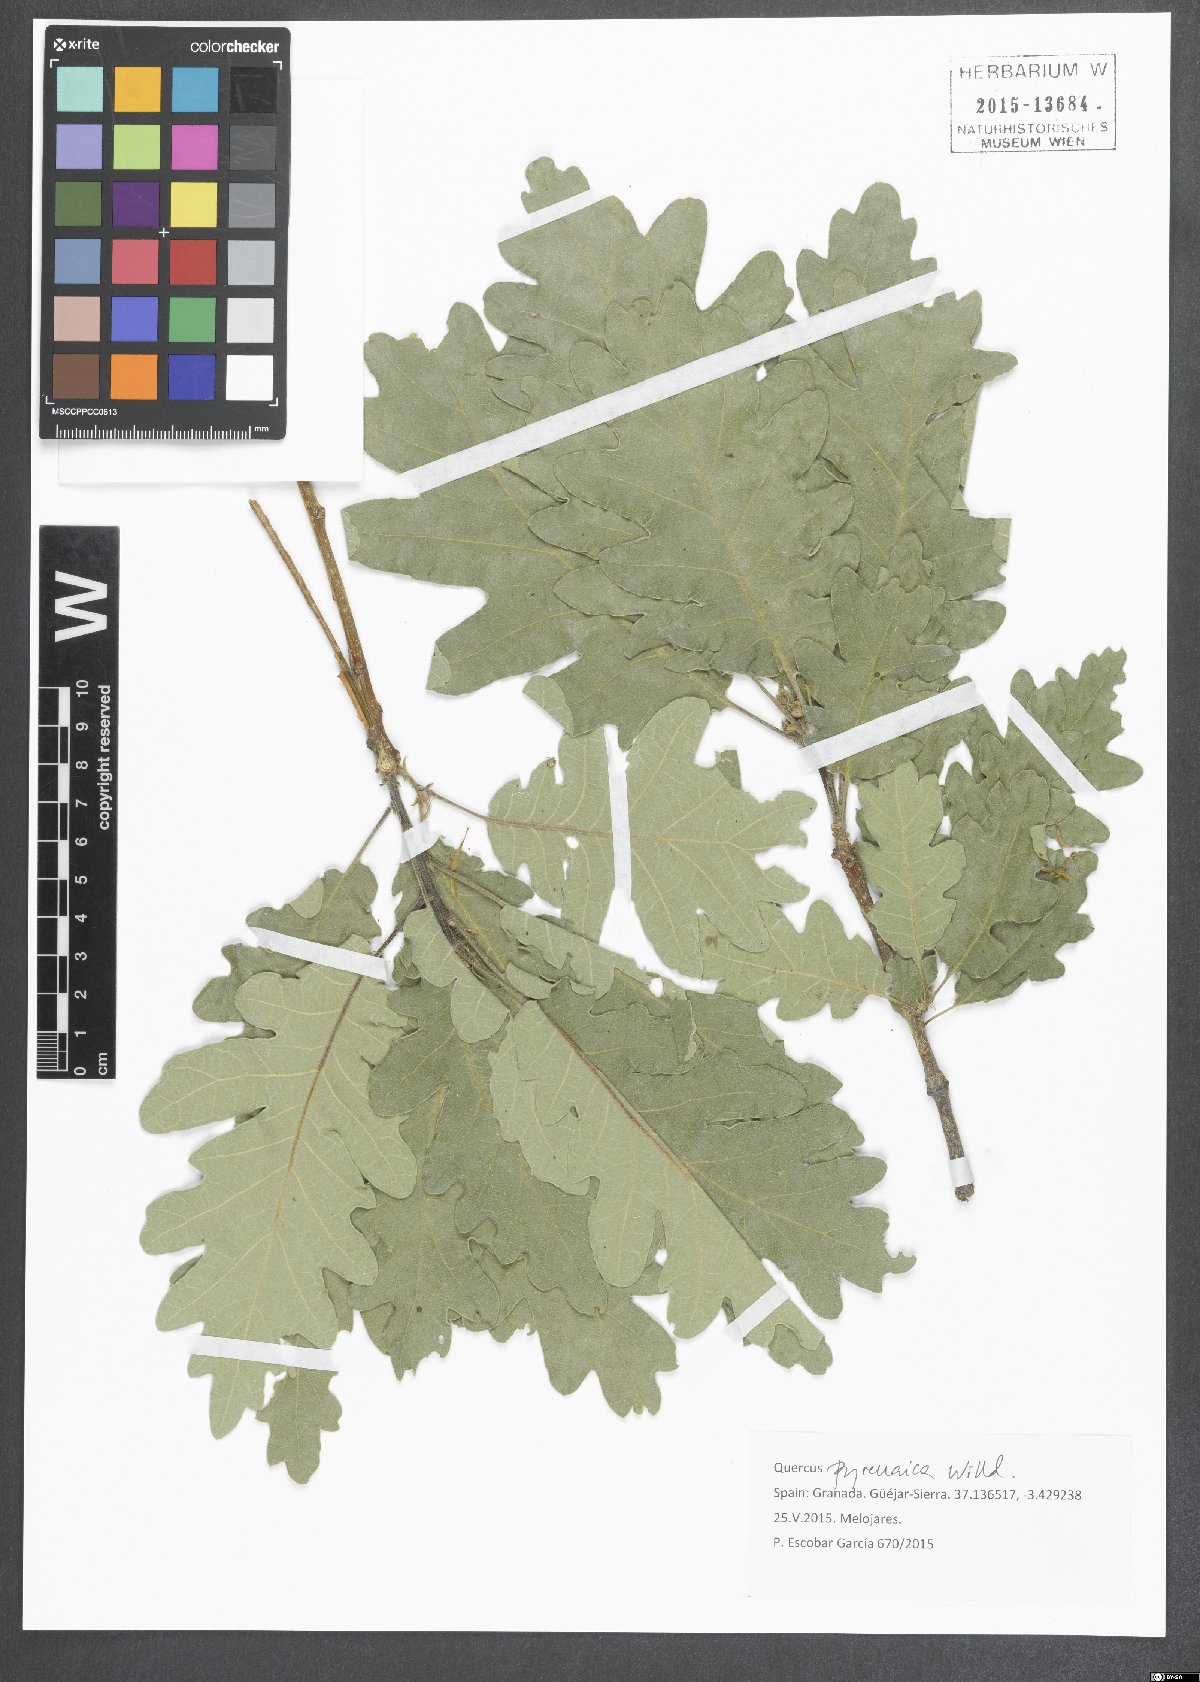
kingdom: Plantae
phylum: Tracheophyta
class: Magnoliopsida
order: Fagales
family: Fagaceae
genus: Quercus
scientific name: Quercus pyrenaica
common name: Pyrenean oak
